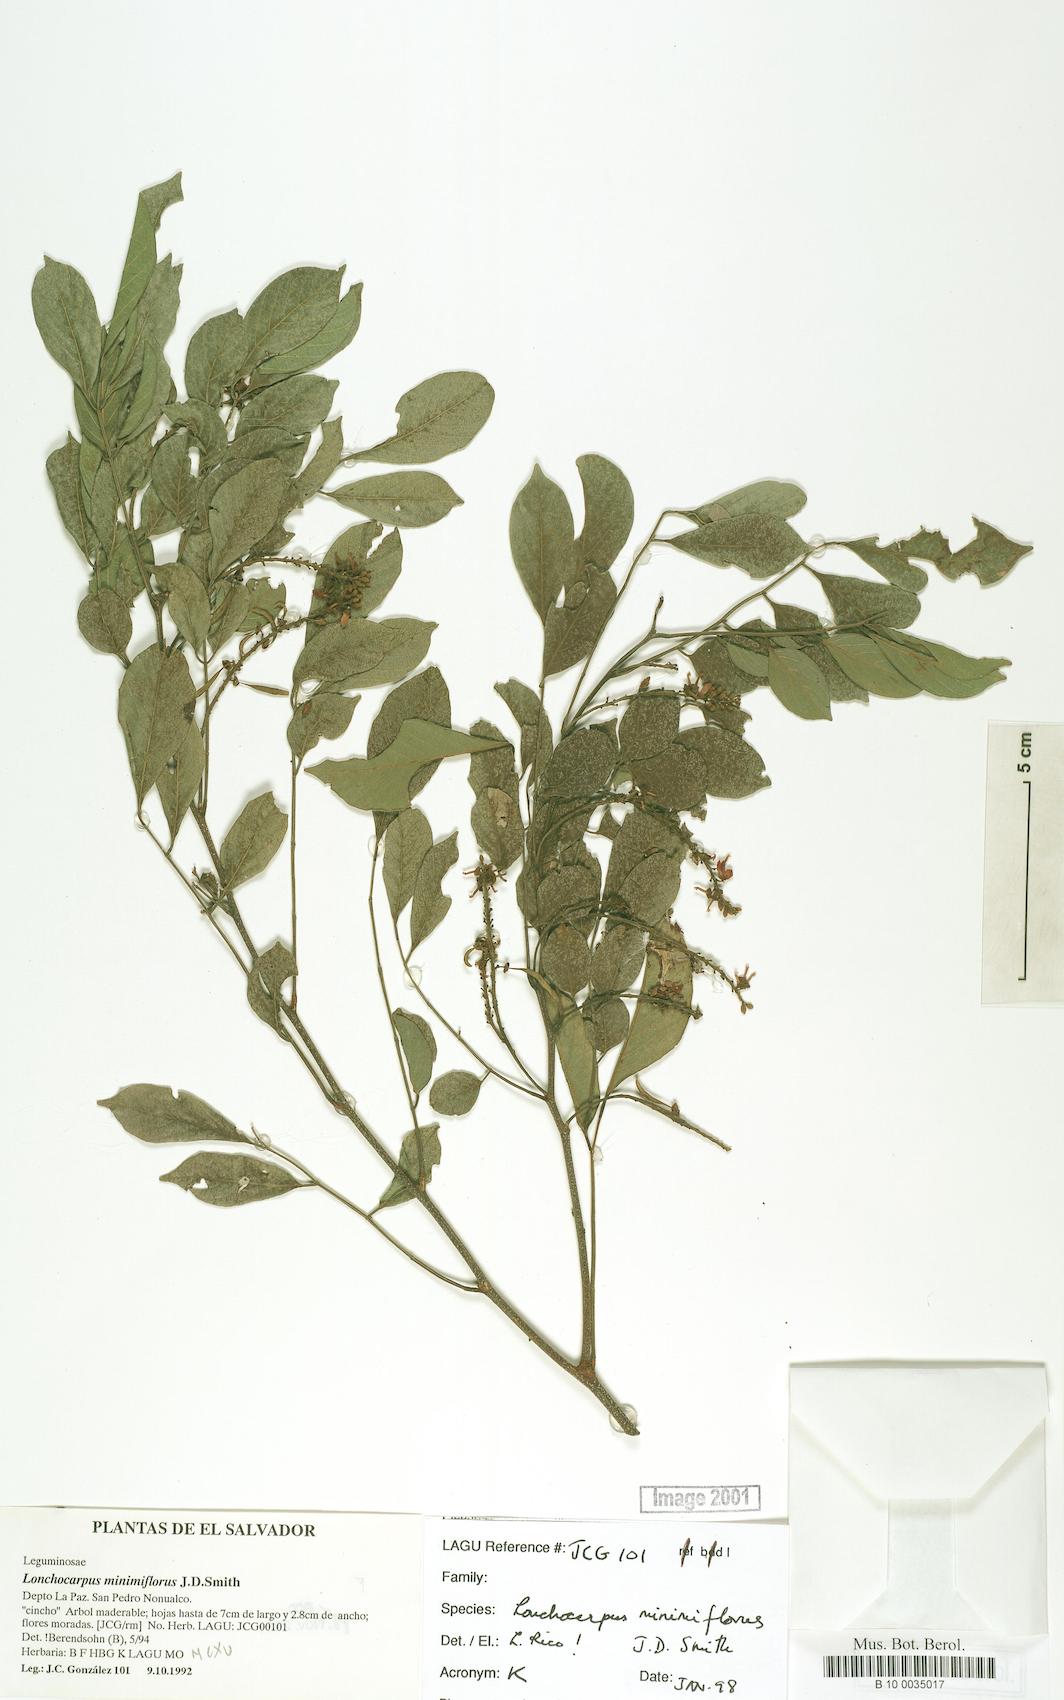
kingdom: Plantae
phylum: Tracheophyta
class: Magnoliopsida
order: Fabales
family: Fabaceae
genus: Lonchocarpus
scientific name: Lonchocarpus minimiflorus
